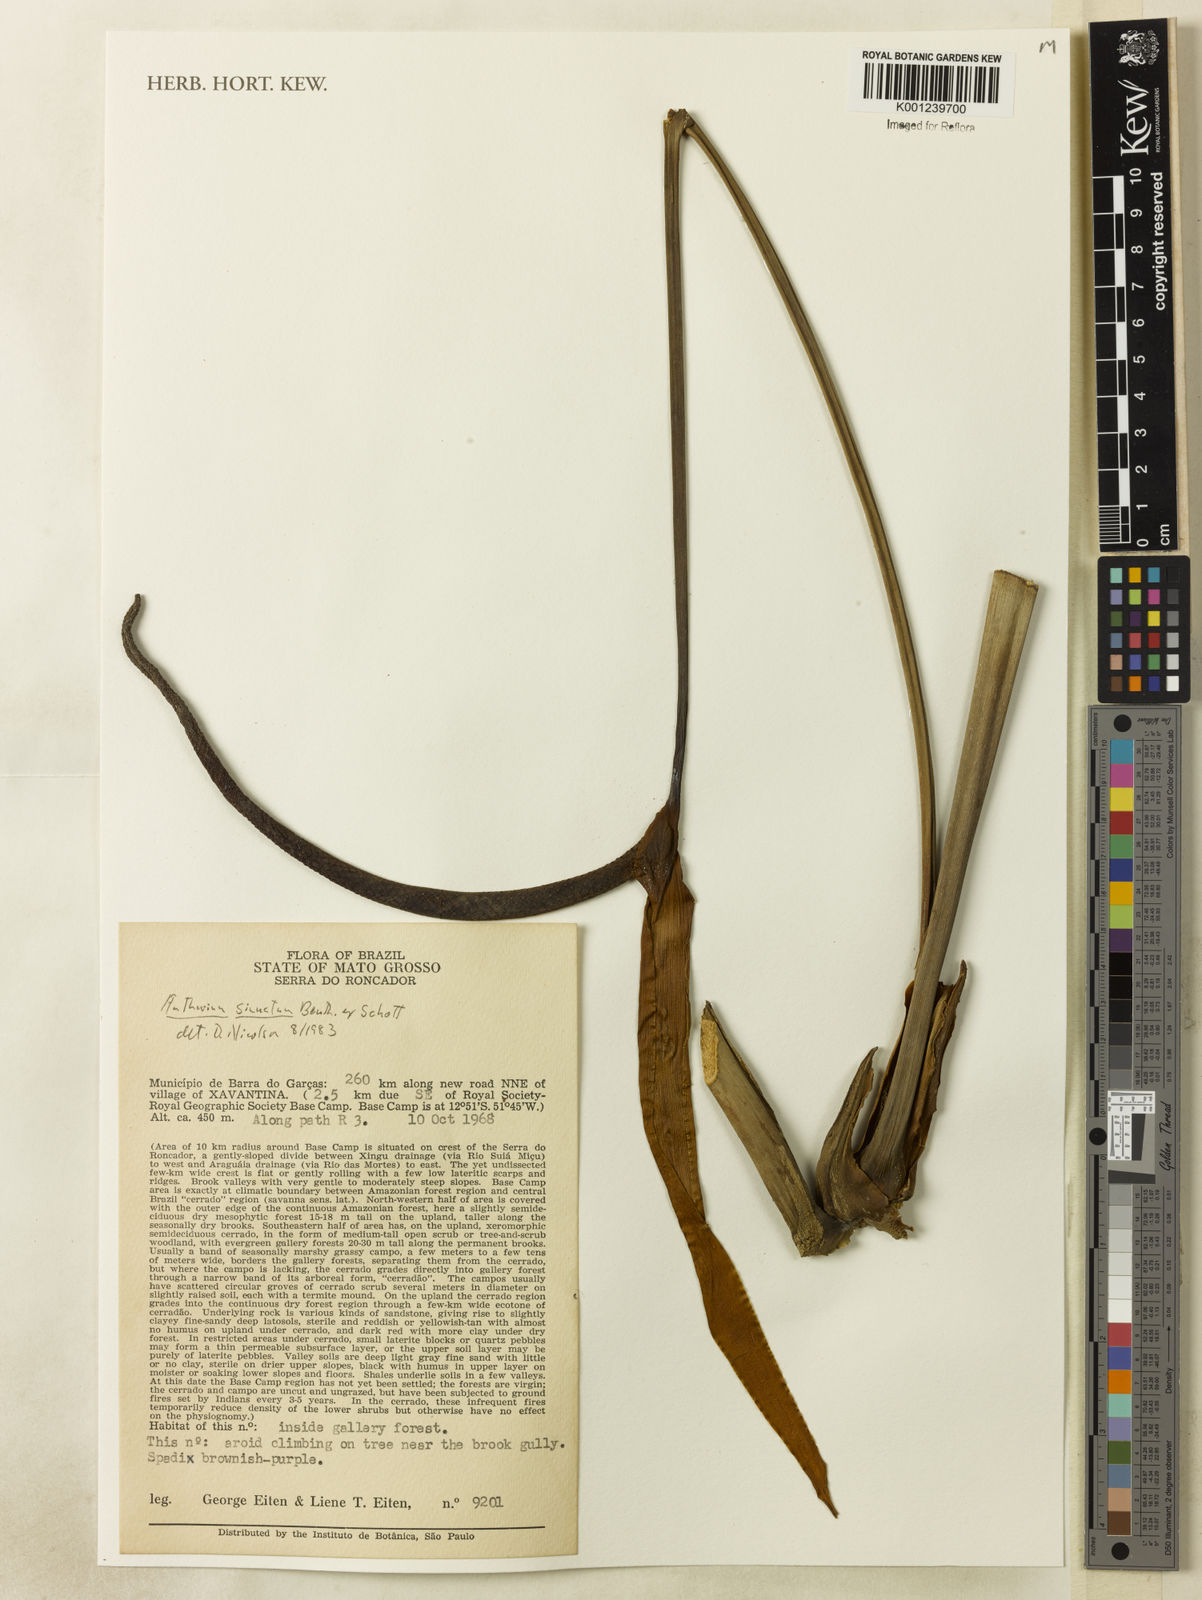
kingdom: Plantae
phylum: Tracheophyta
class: Liliopsida
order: Alismatales
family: Araceae
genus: Anthurium
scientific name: Anthurium sinuatum
